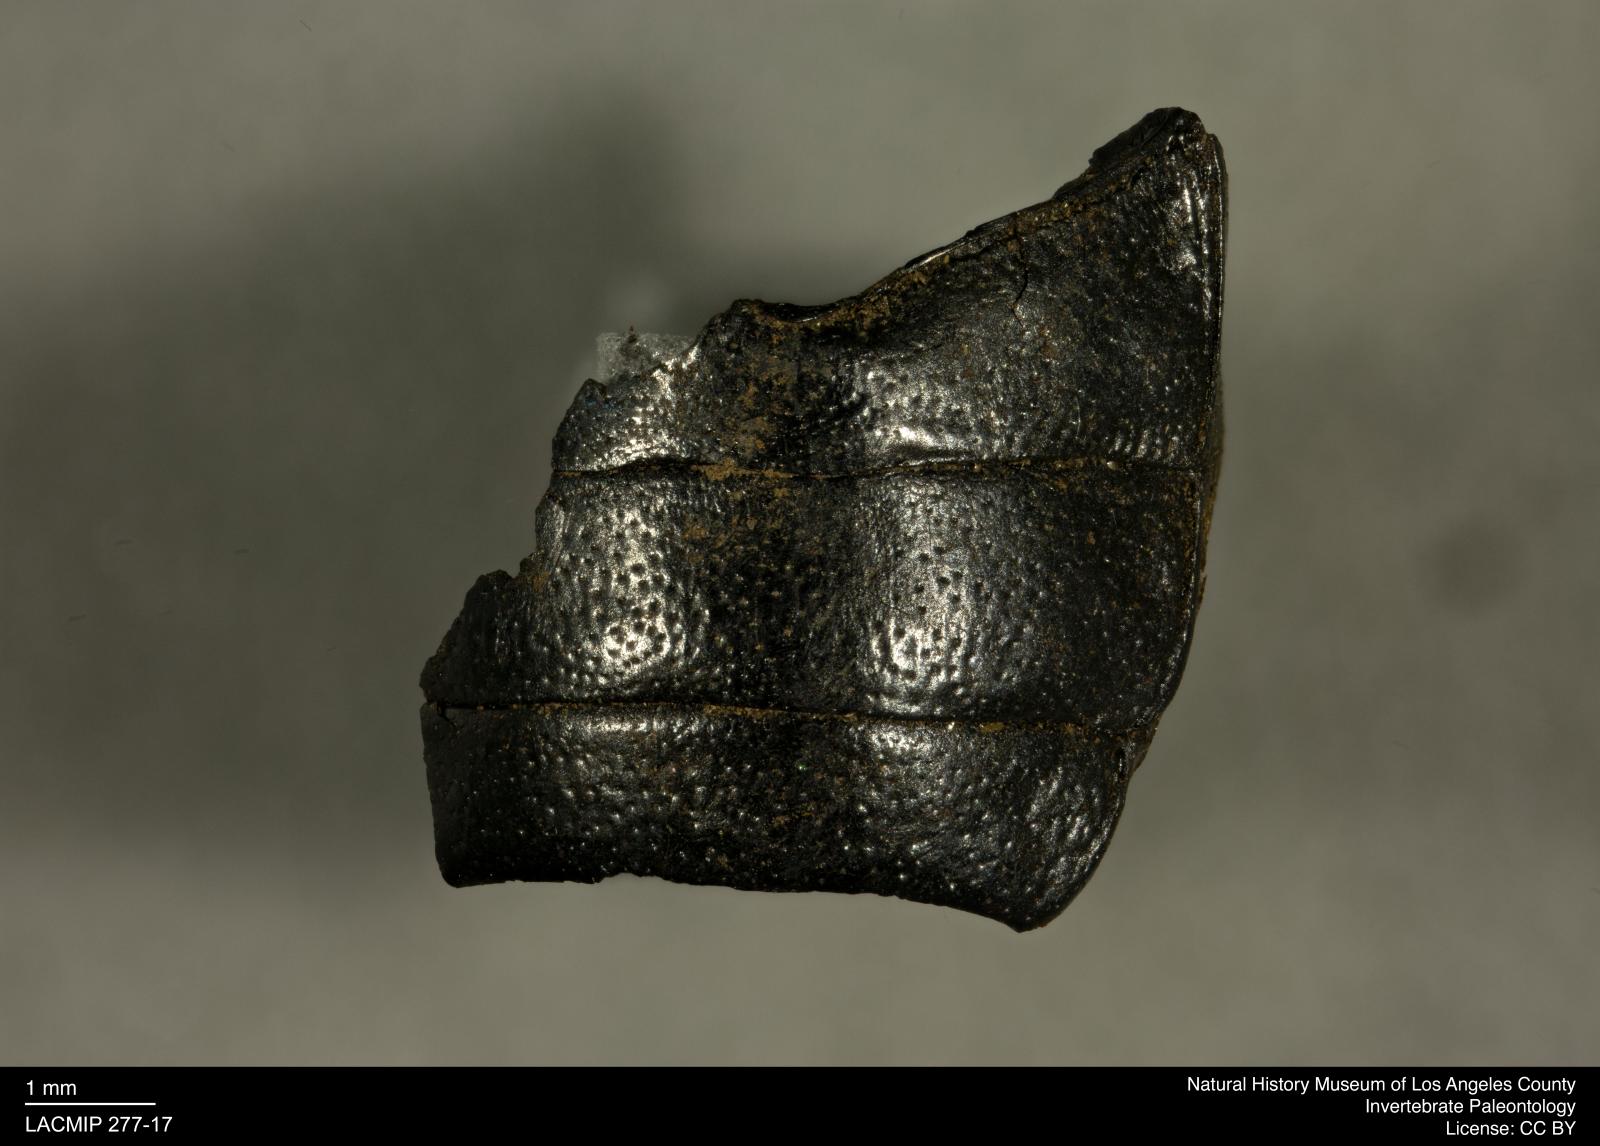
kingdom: Animalia
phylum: Arthropoda
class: Insecta
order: Coleoptera
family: Tenebrionidae
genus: Coniontis
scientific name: Coniontis abdominalis
